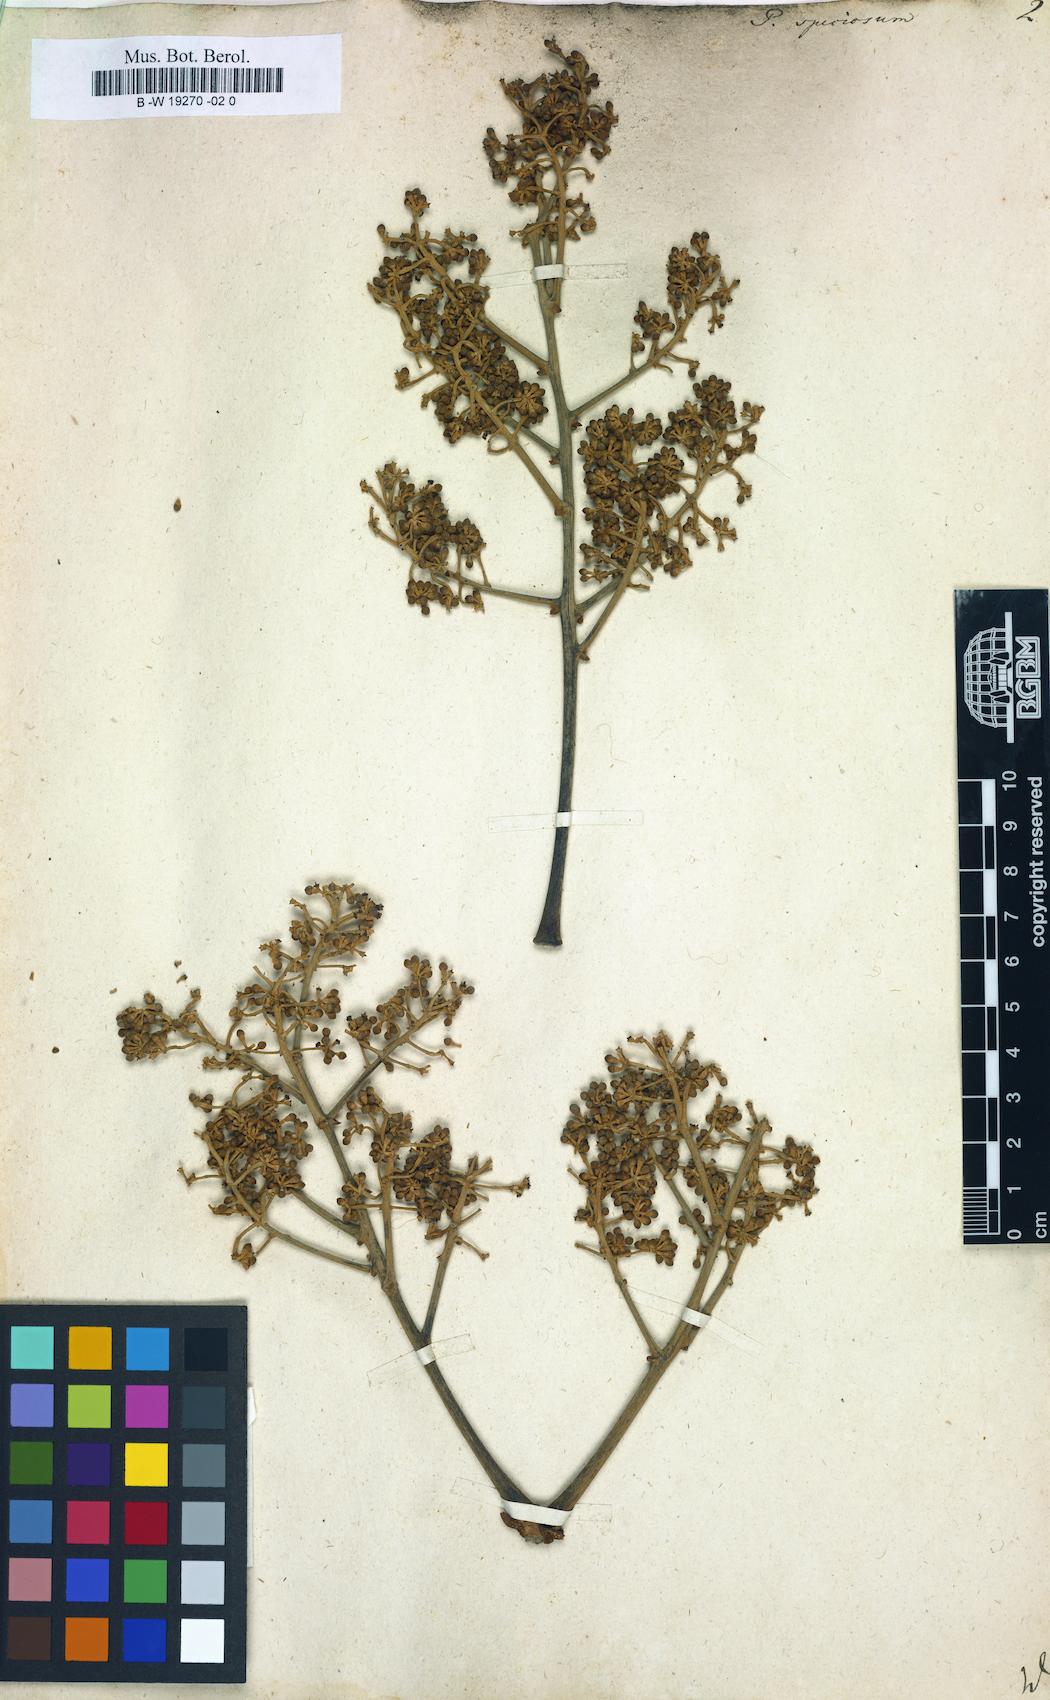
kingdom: Plantae
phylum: Tracheophyta
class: Magnoliopsida
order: Apiales
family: Araliaceae
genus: Didymopanax
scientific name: Didymopanax morototoni
